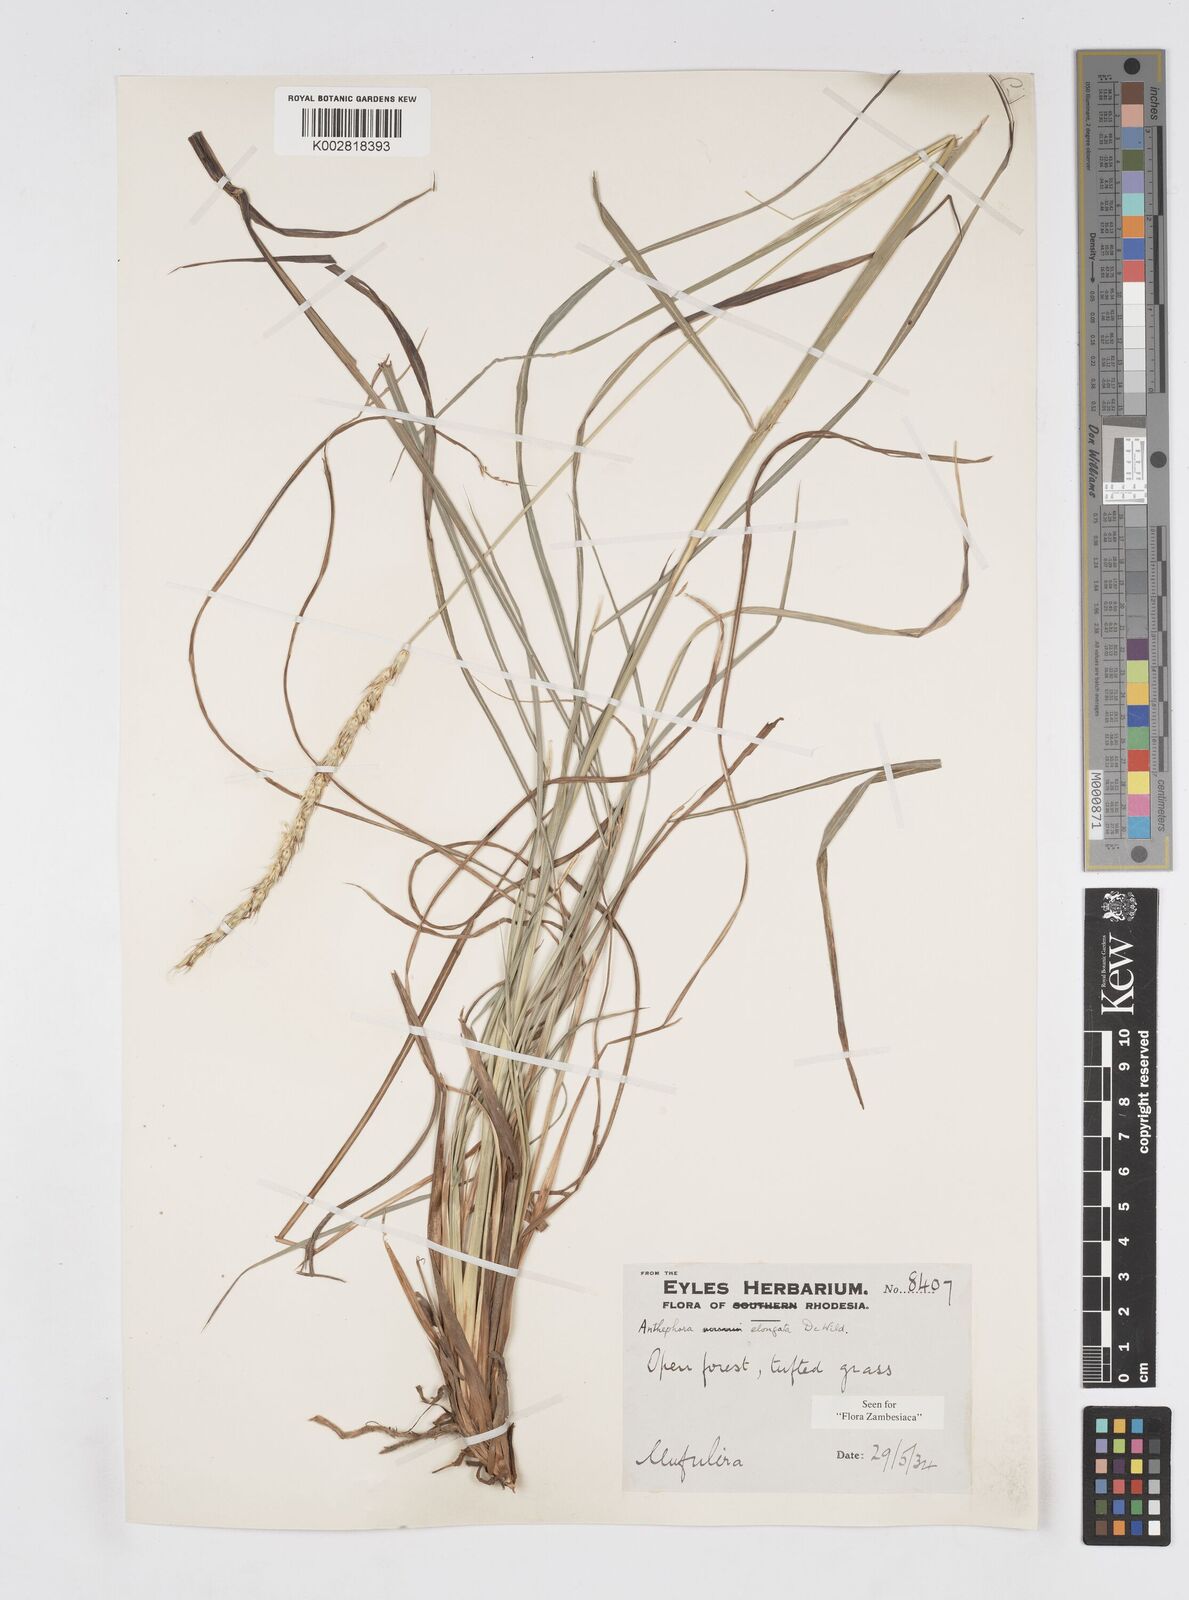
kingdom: Plantae
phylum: Tracheophyta
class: Liliopsida
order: Poales
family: Poaceae
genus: Anthephora
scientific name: Anthephora elongata
